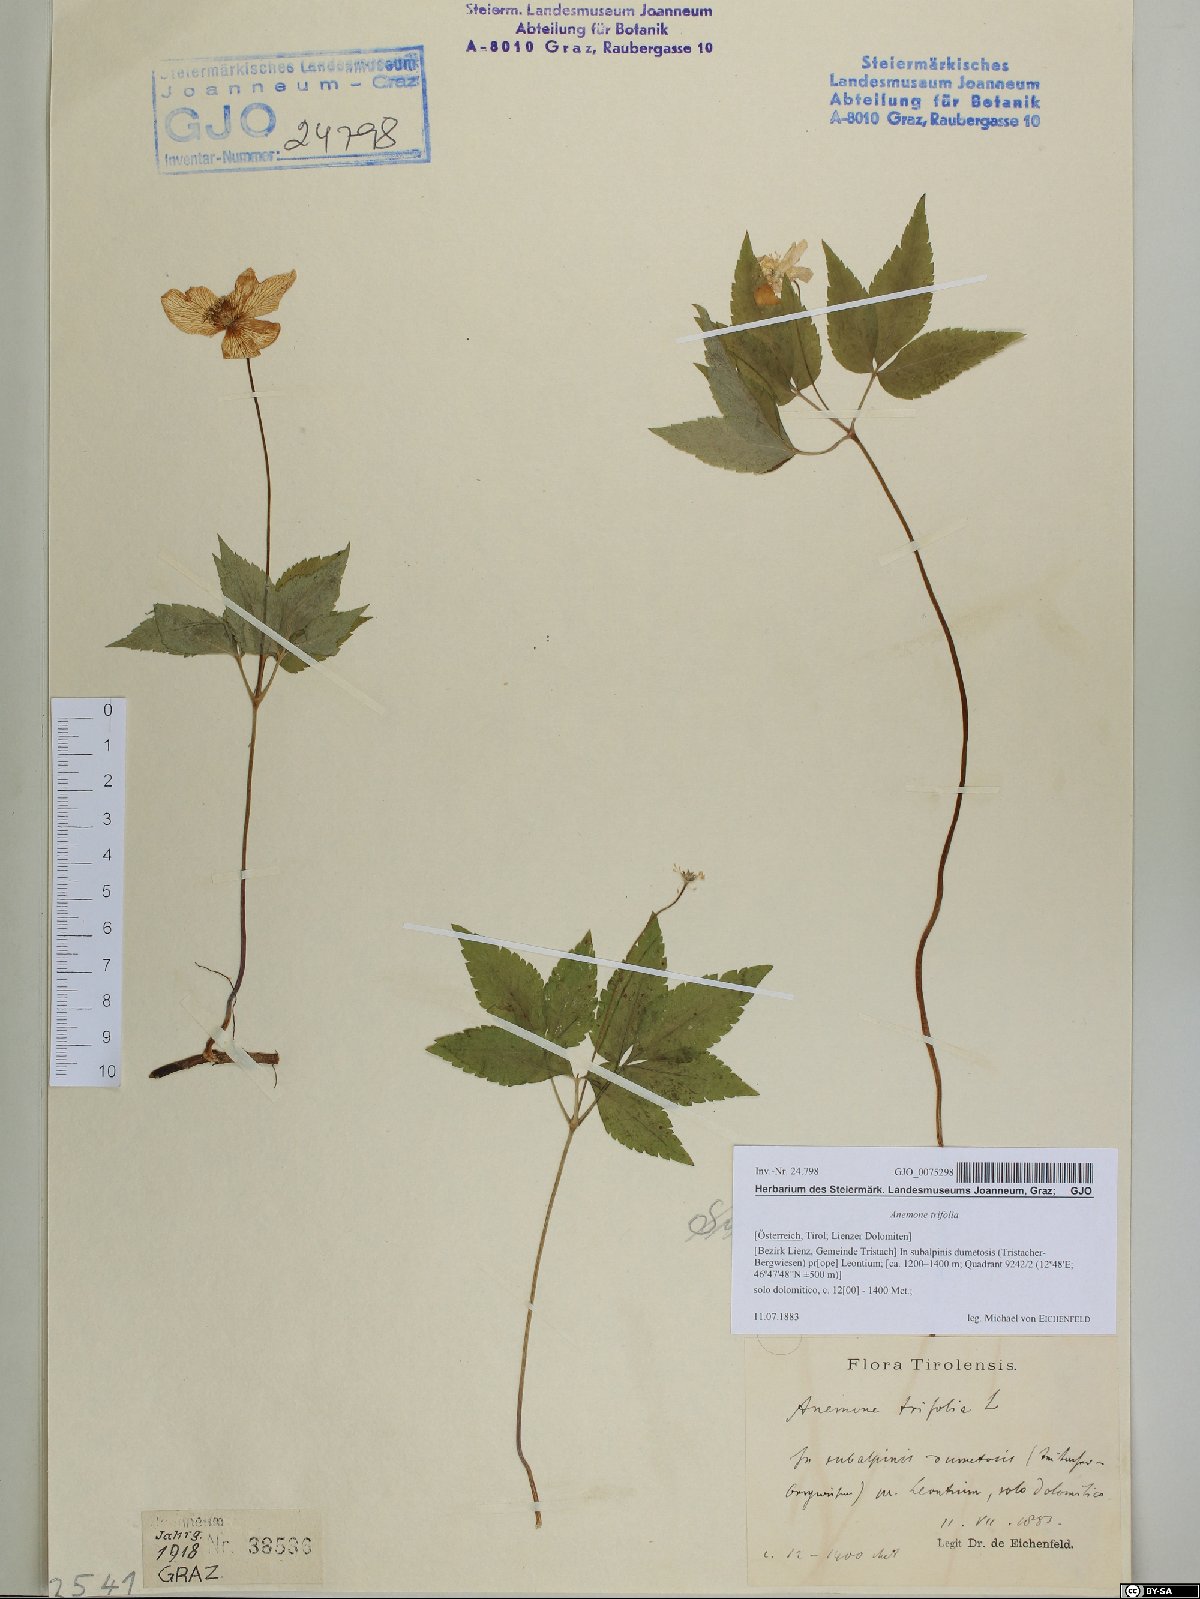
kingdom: Plantae
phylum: Tracheophyta
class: Magnoliopsida
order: Ranunculales
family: Ranunculaceae
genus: Anemone
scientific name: Anemone trifolia
